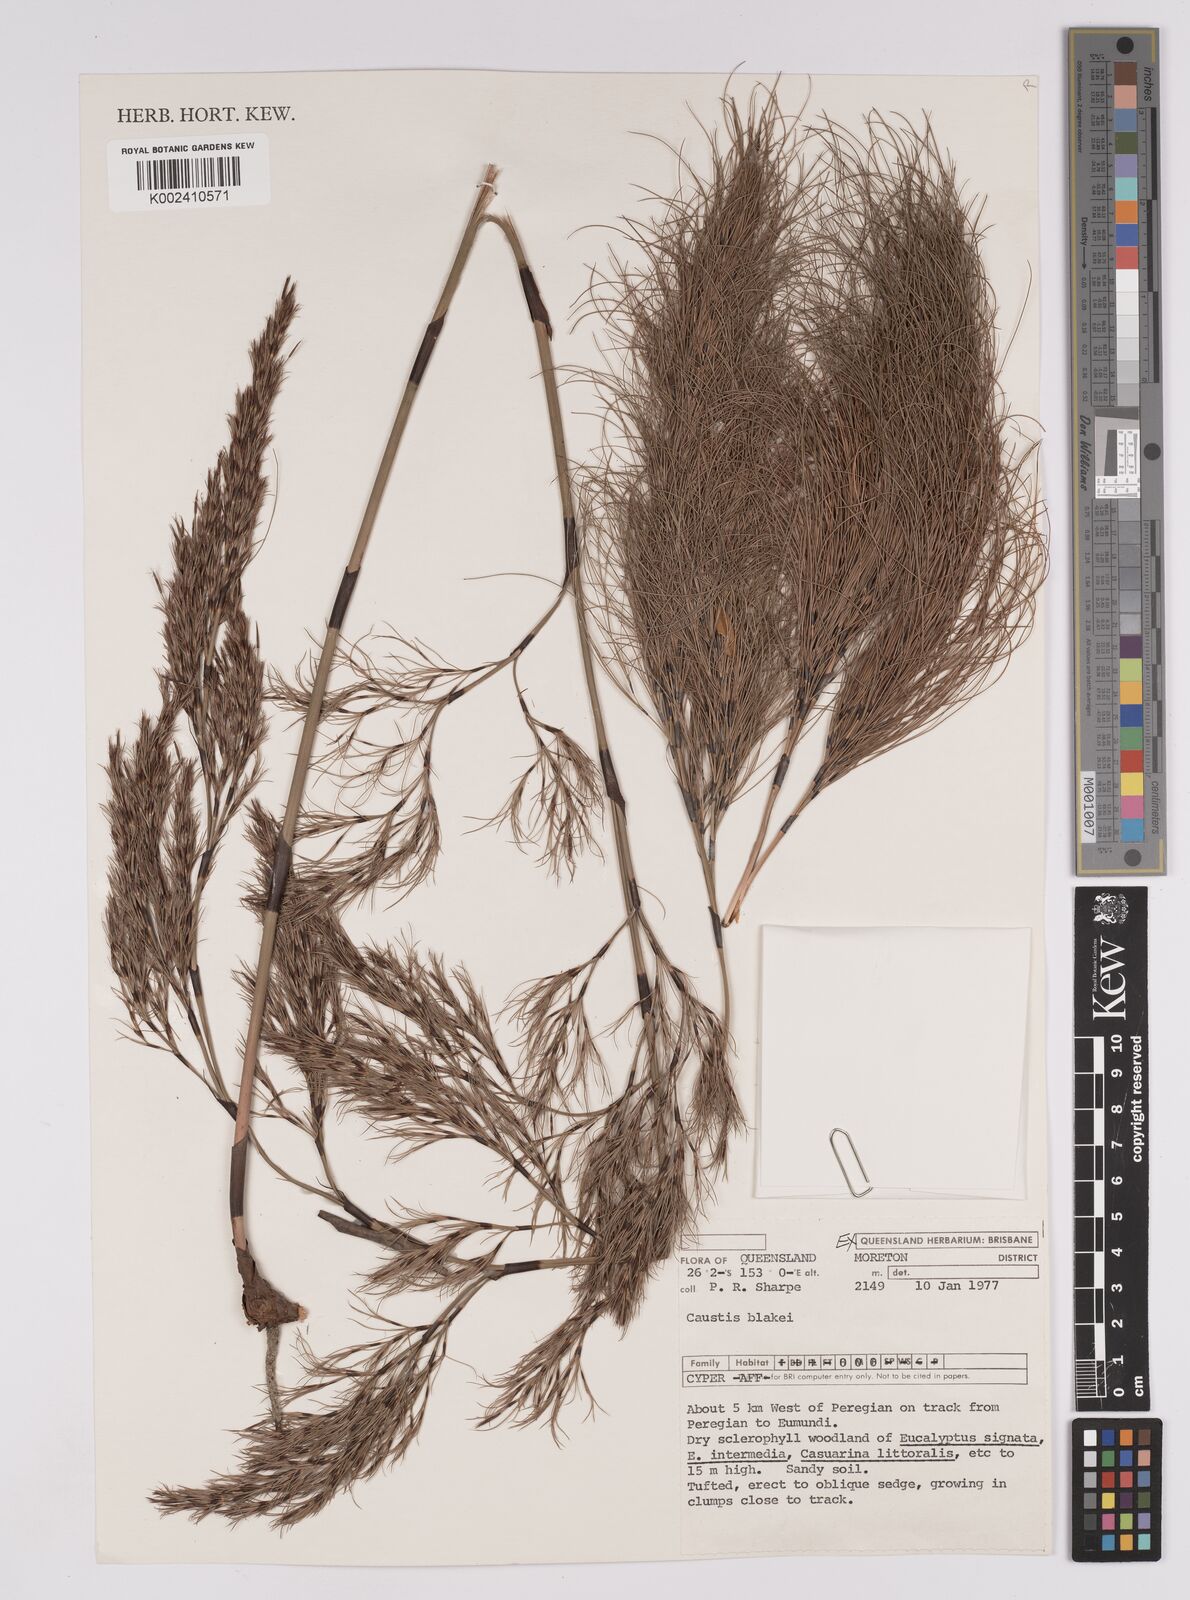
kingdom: Plantae
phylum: Tracheophyta
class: Liliopsida
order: Poales
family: Cyperaceae
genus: Caustis
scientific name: Caustis blakei
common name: Foxtail-fern
